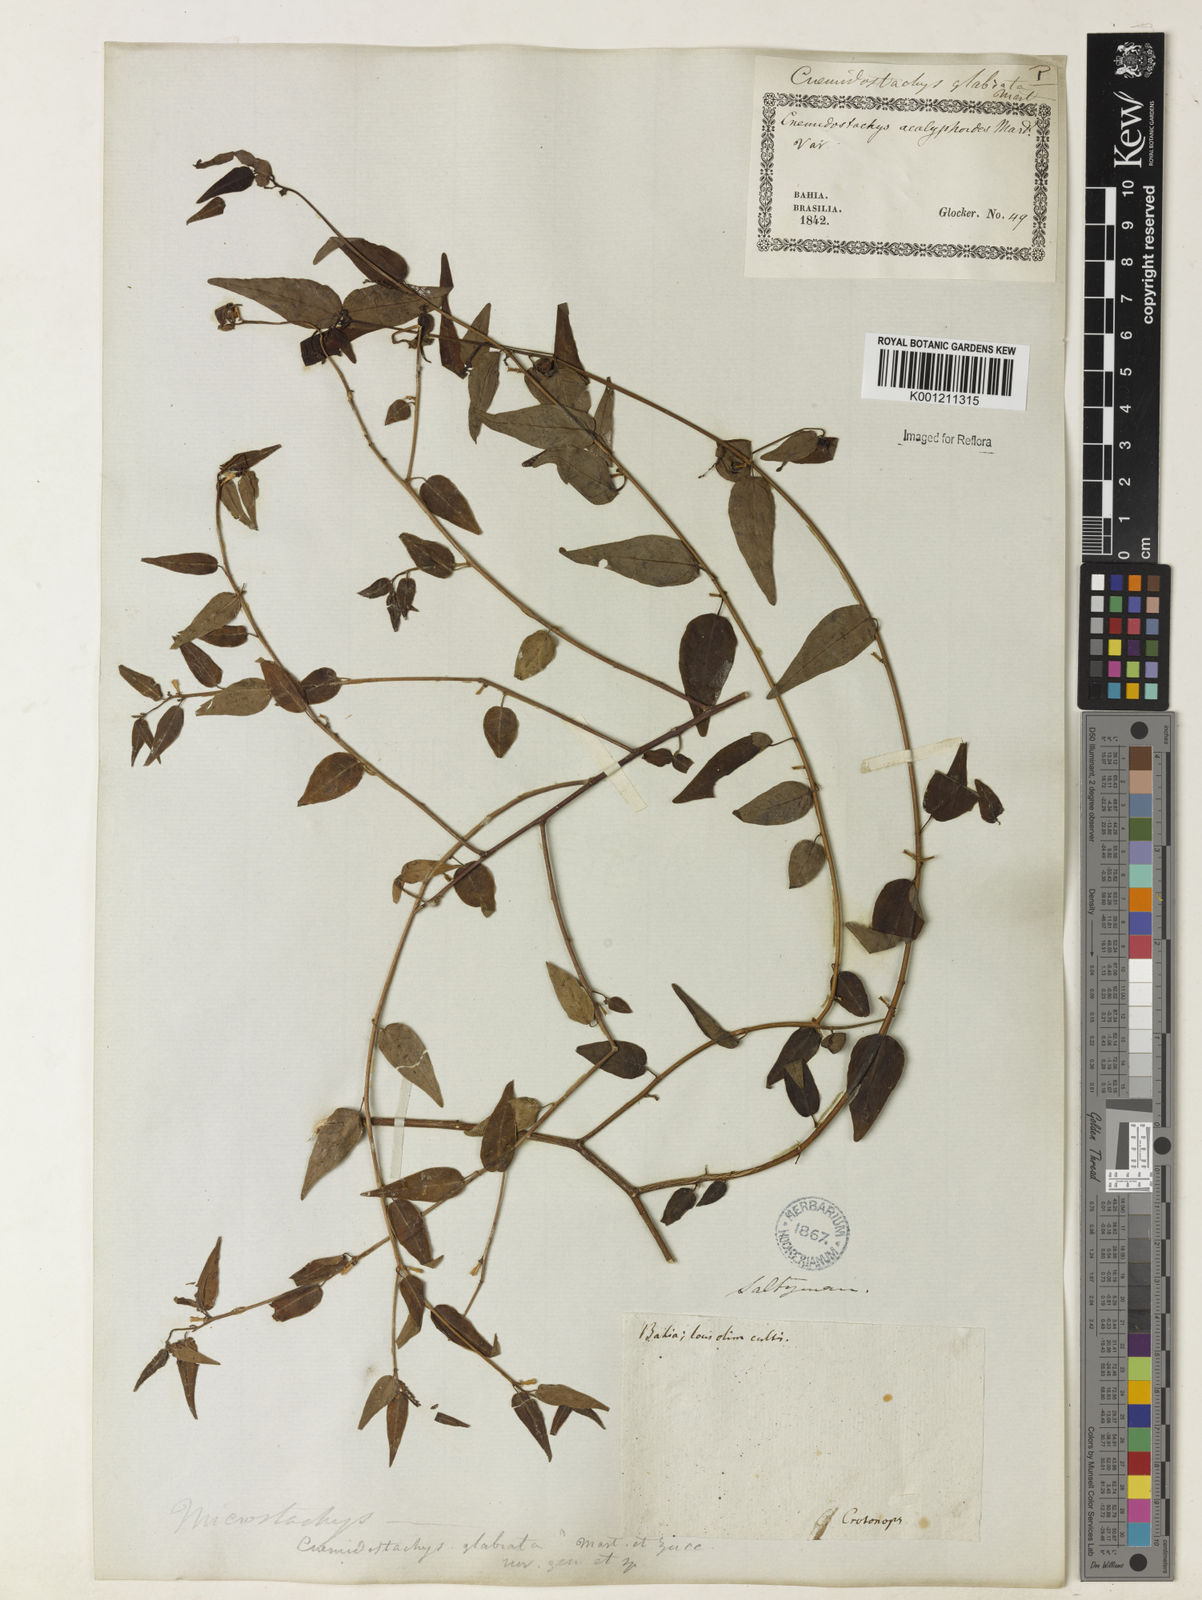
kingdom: Plantae
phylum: Tracheophyta
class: Magnoliopsida
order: Malpighiales
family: Euphorbiaceae
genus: Microstachys
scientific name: Microstachys corniculata
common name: Hato tejas
